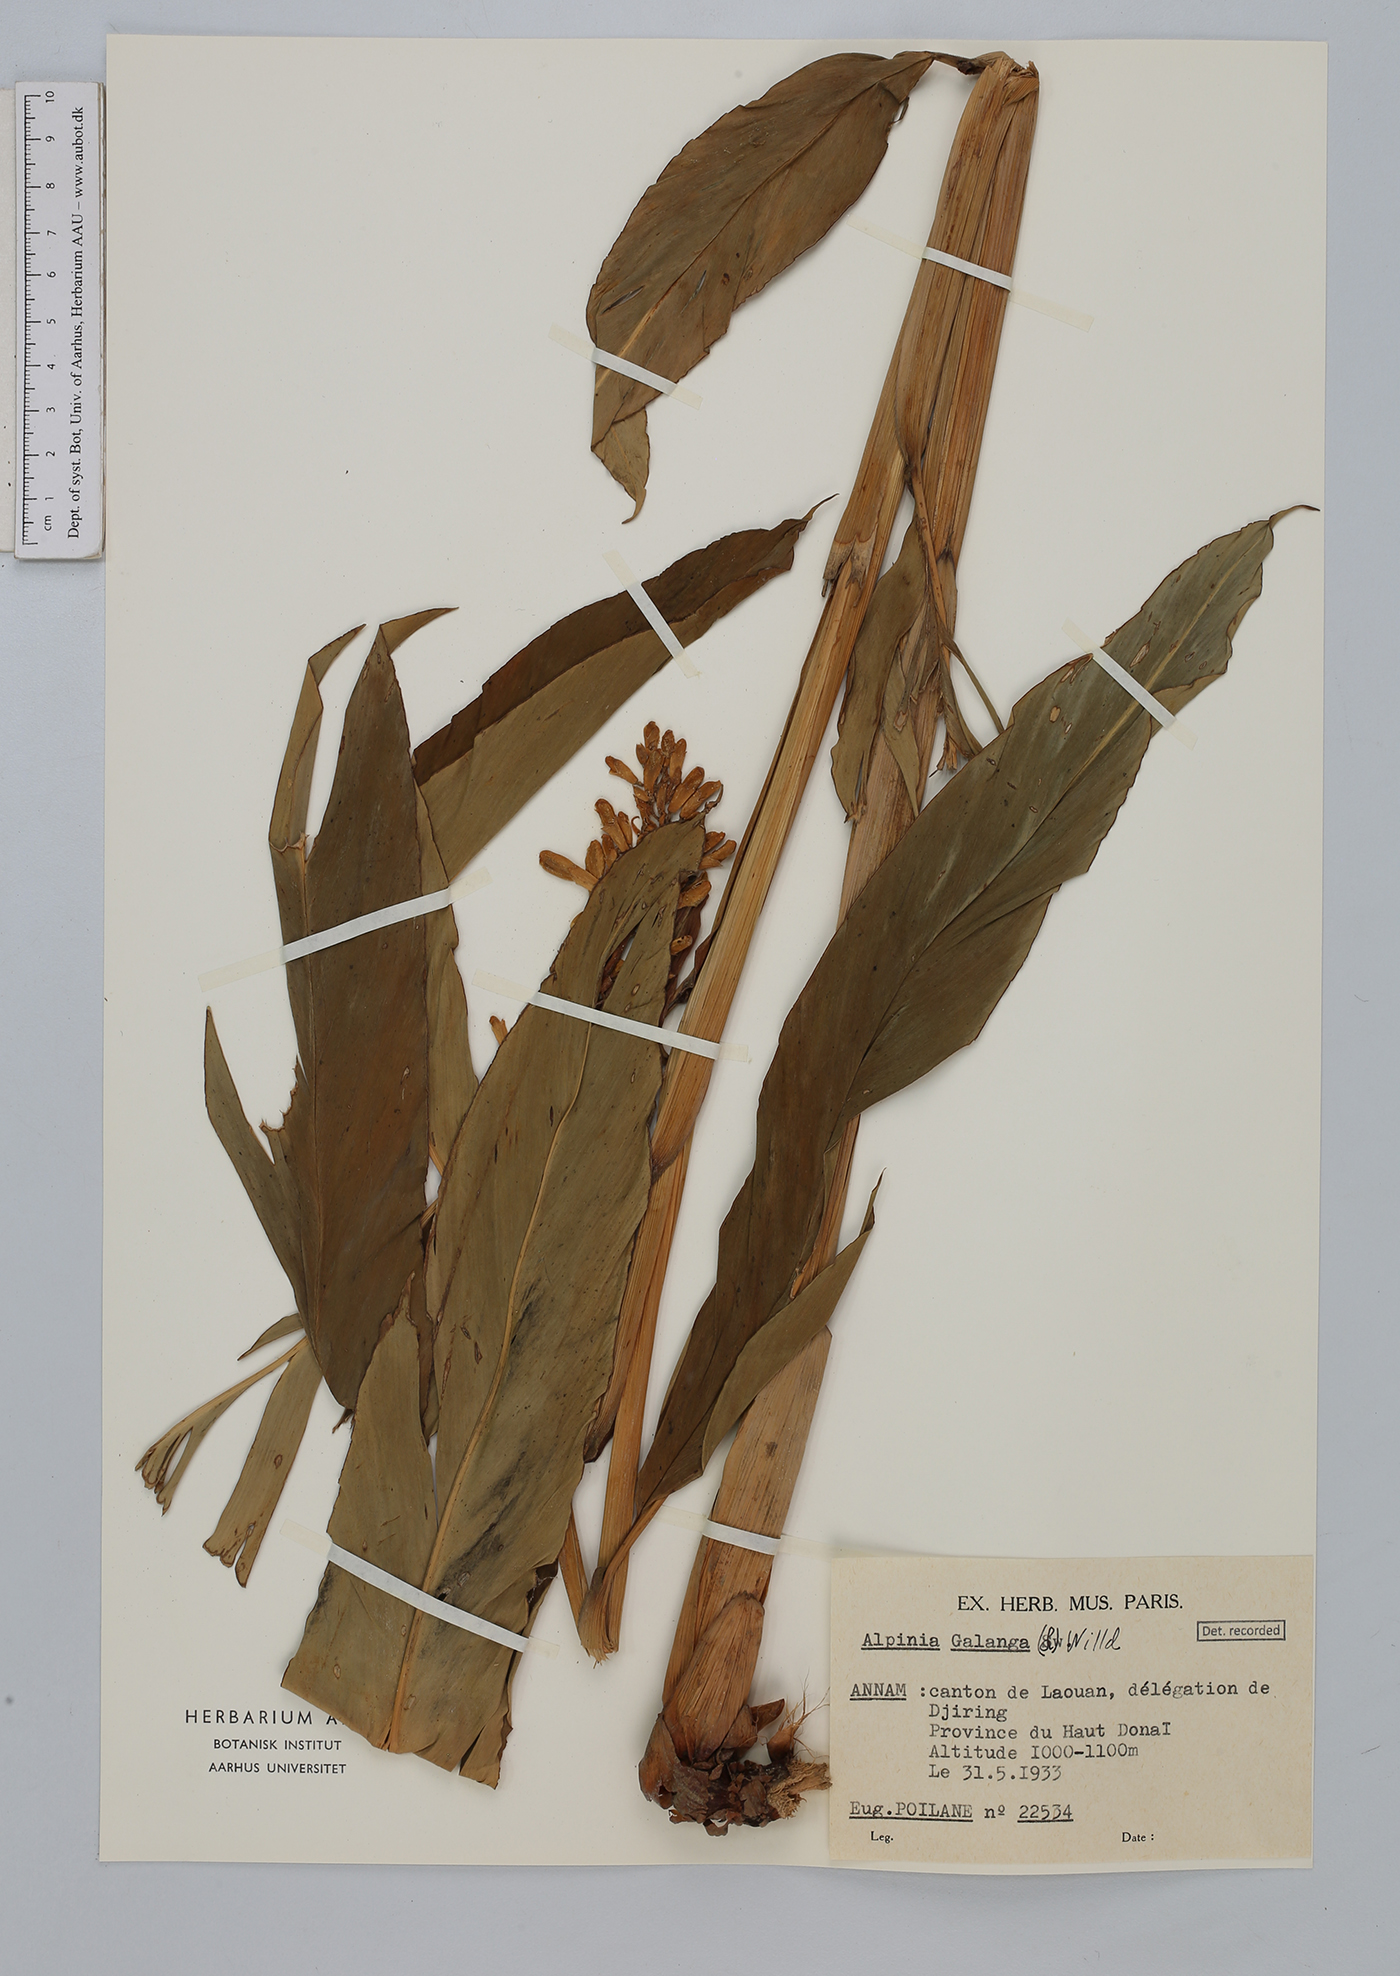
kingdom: Plantae
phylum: Tracheophyta
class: Liliopsida
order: Zingiberales
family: Zingiberaceae
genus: Alpinia
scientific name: Alpinia galanga
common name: Siamese-ginger
